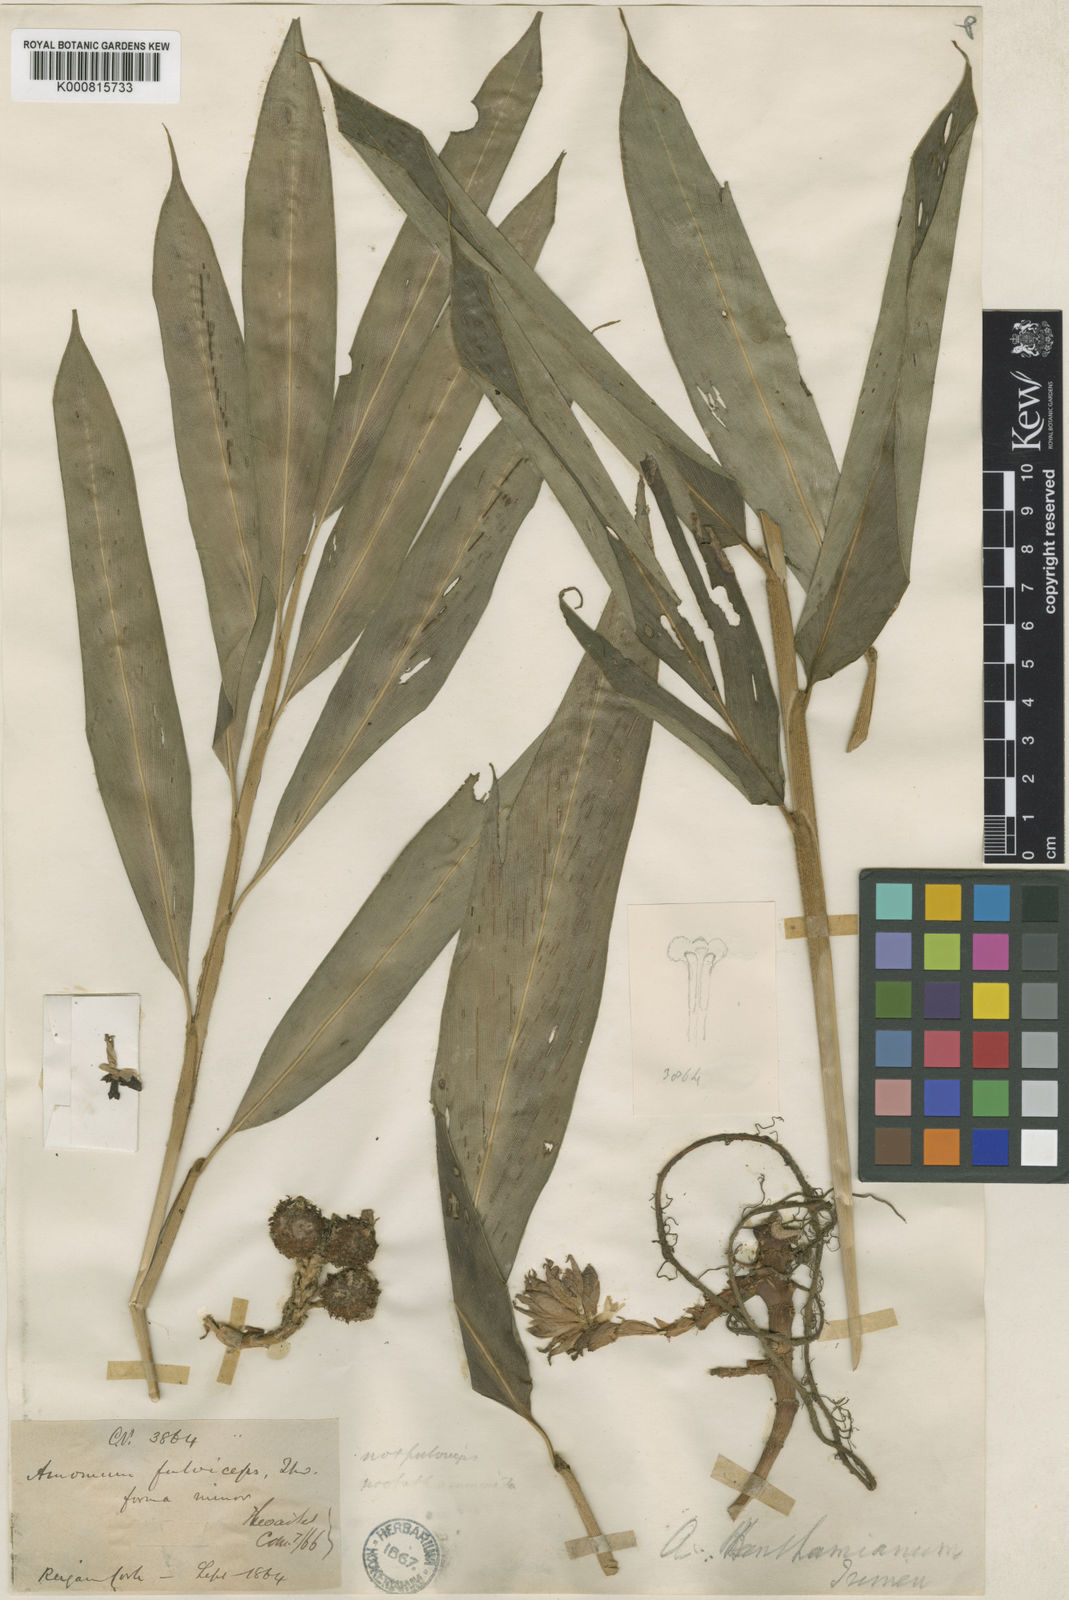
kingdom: Plantae
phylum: Tracheophyta
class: Liliopsida
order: Zingiberales
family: Zingiberaceae
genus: Meistera
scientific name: Meistera benthamiana
